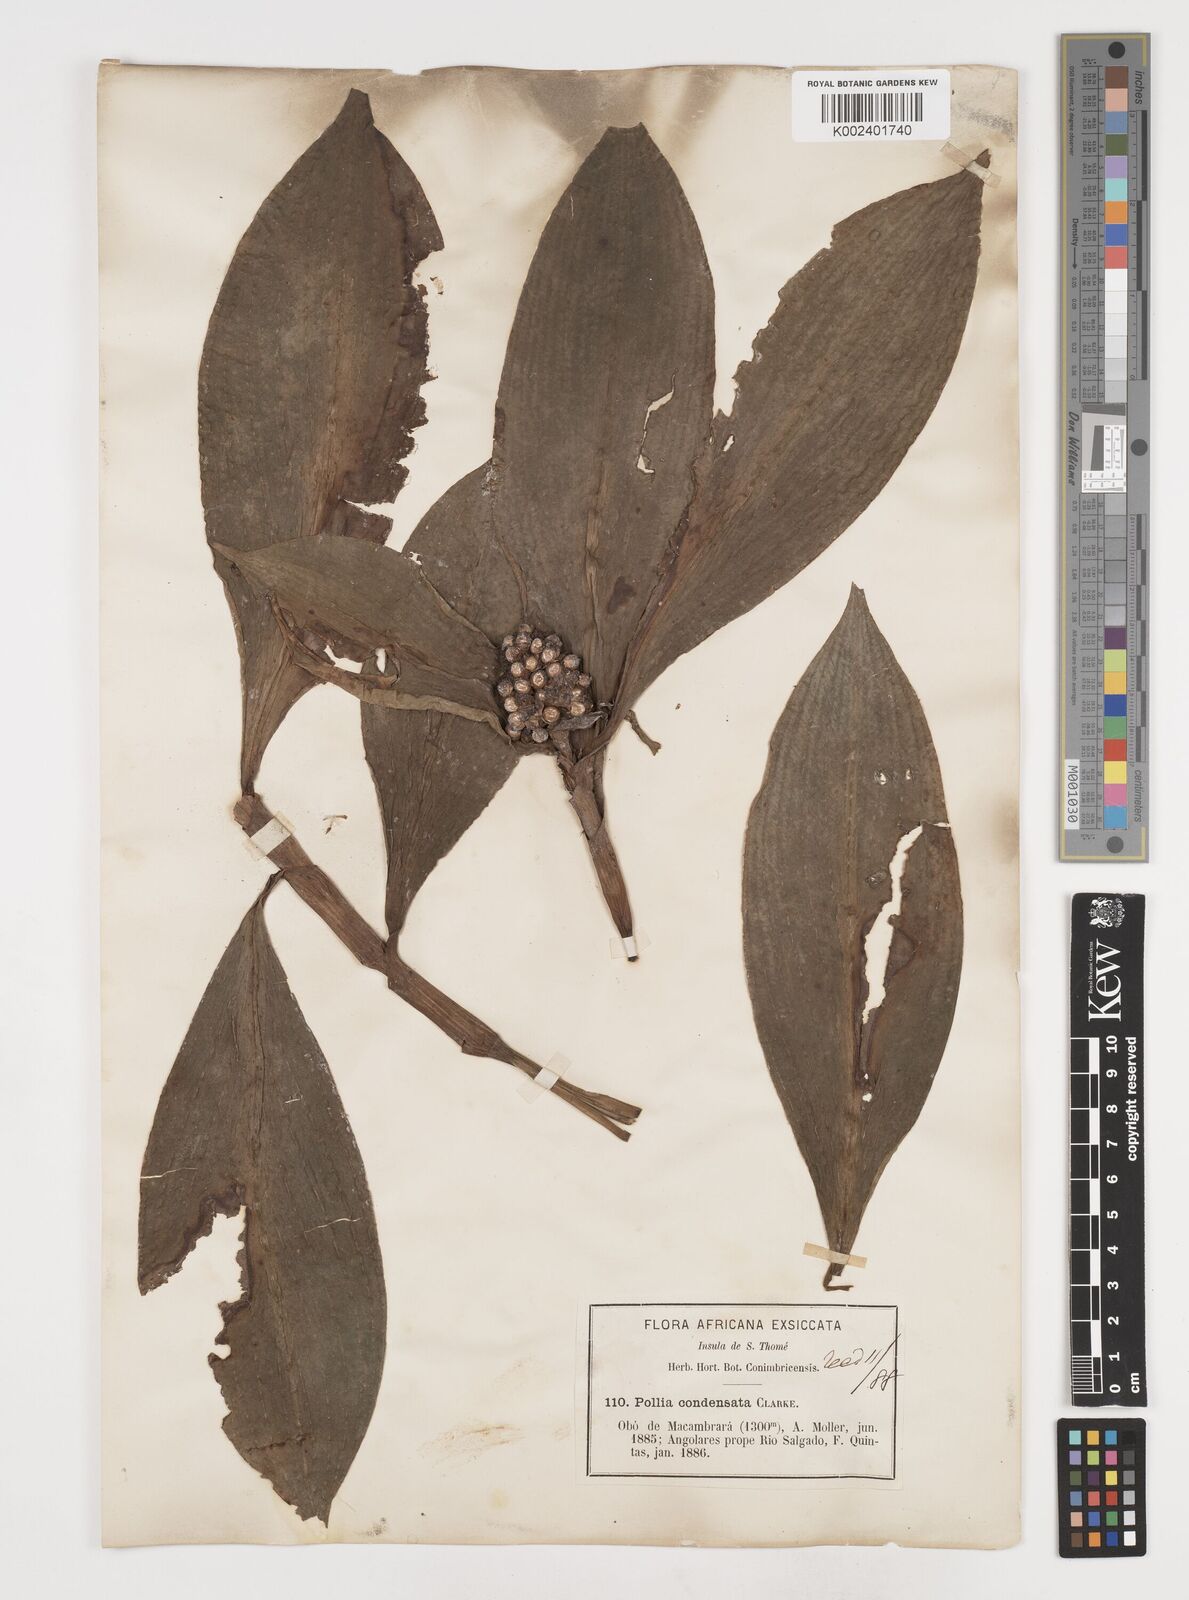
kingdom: Plantae
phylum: Tracheophyta
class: Liliopsida
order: Commelinales
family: Commelinaceae
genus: Pollia
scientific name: Pollia condensata
